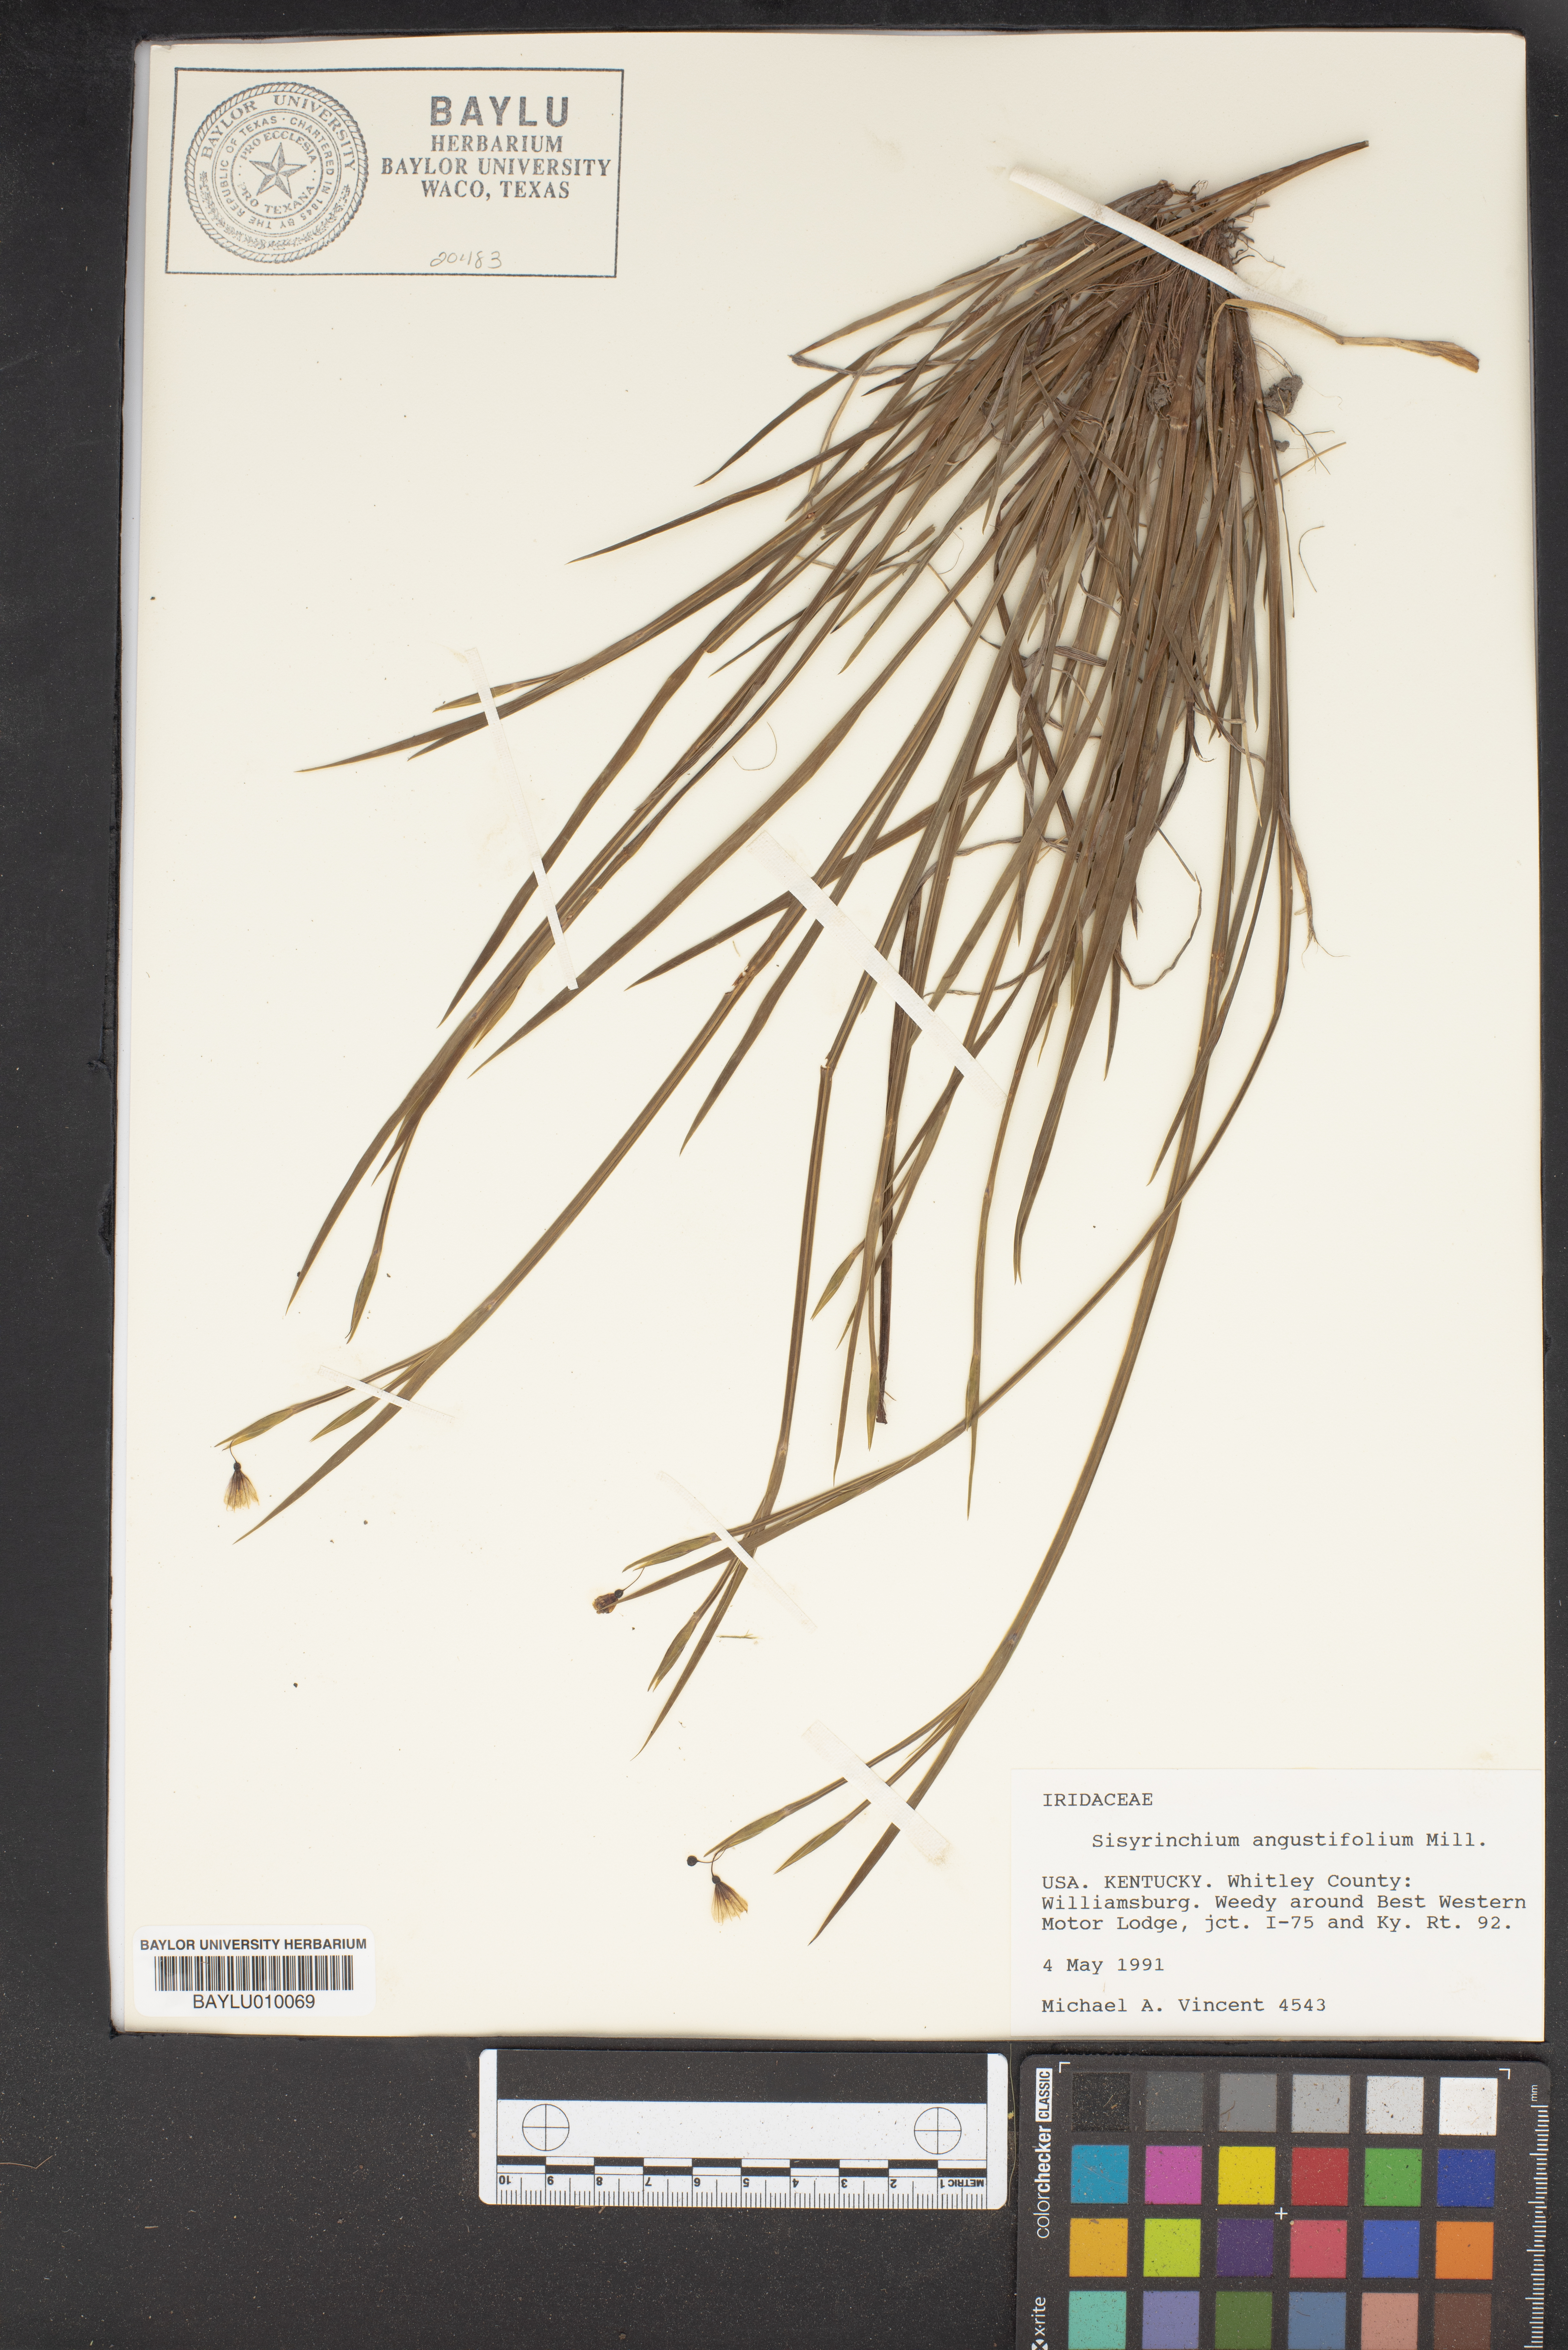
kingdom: Plantae
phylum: Tracheophyta
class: Liliopsida
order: Asparagales
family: Iridaceae
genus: Sisyrinchium
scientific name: Sisyrinchium angustifolium
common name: Narrow-leaf blue-eyed-grass
